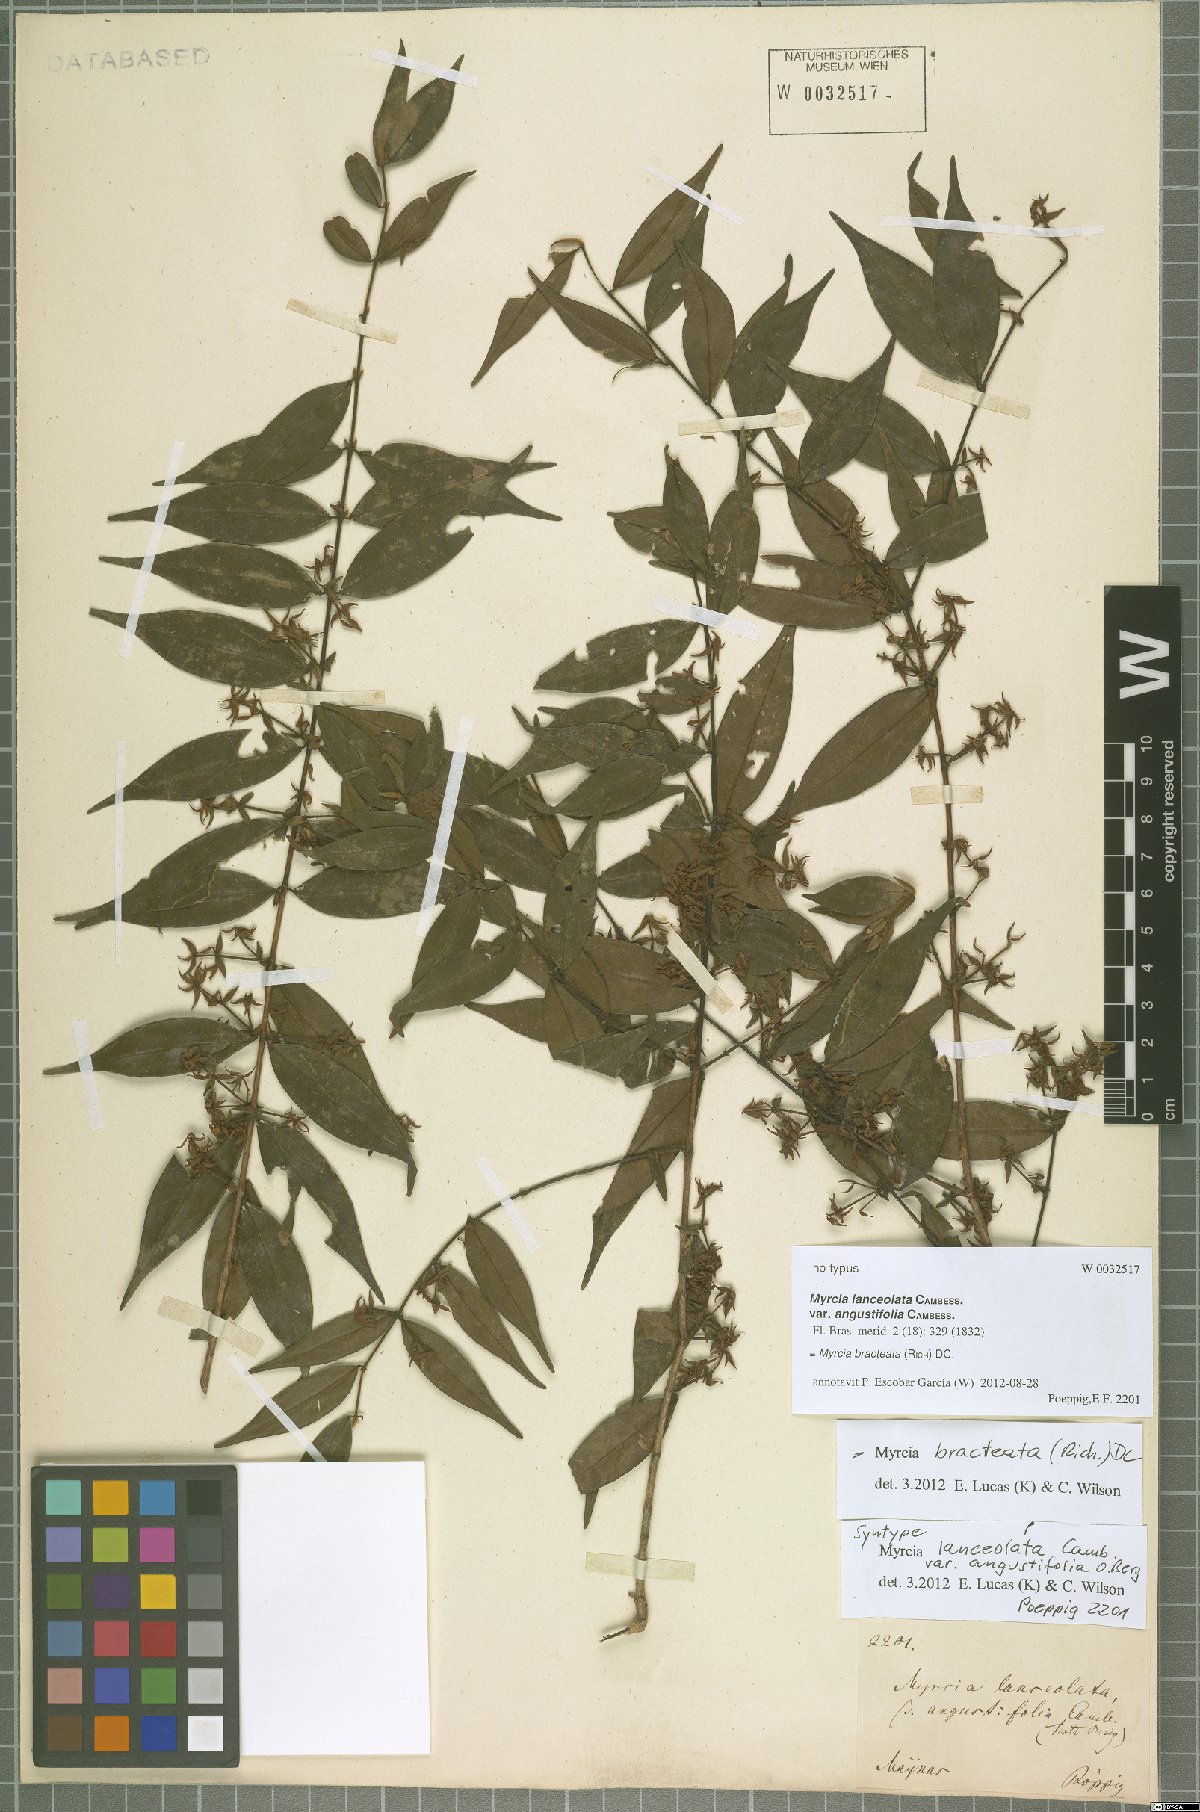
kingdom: Plantae
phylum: Tracheophyta
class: Magnoliopsida
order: Myrtales
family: Myrtaceae
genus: Myrcia
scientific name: Myrcia bracteata
